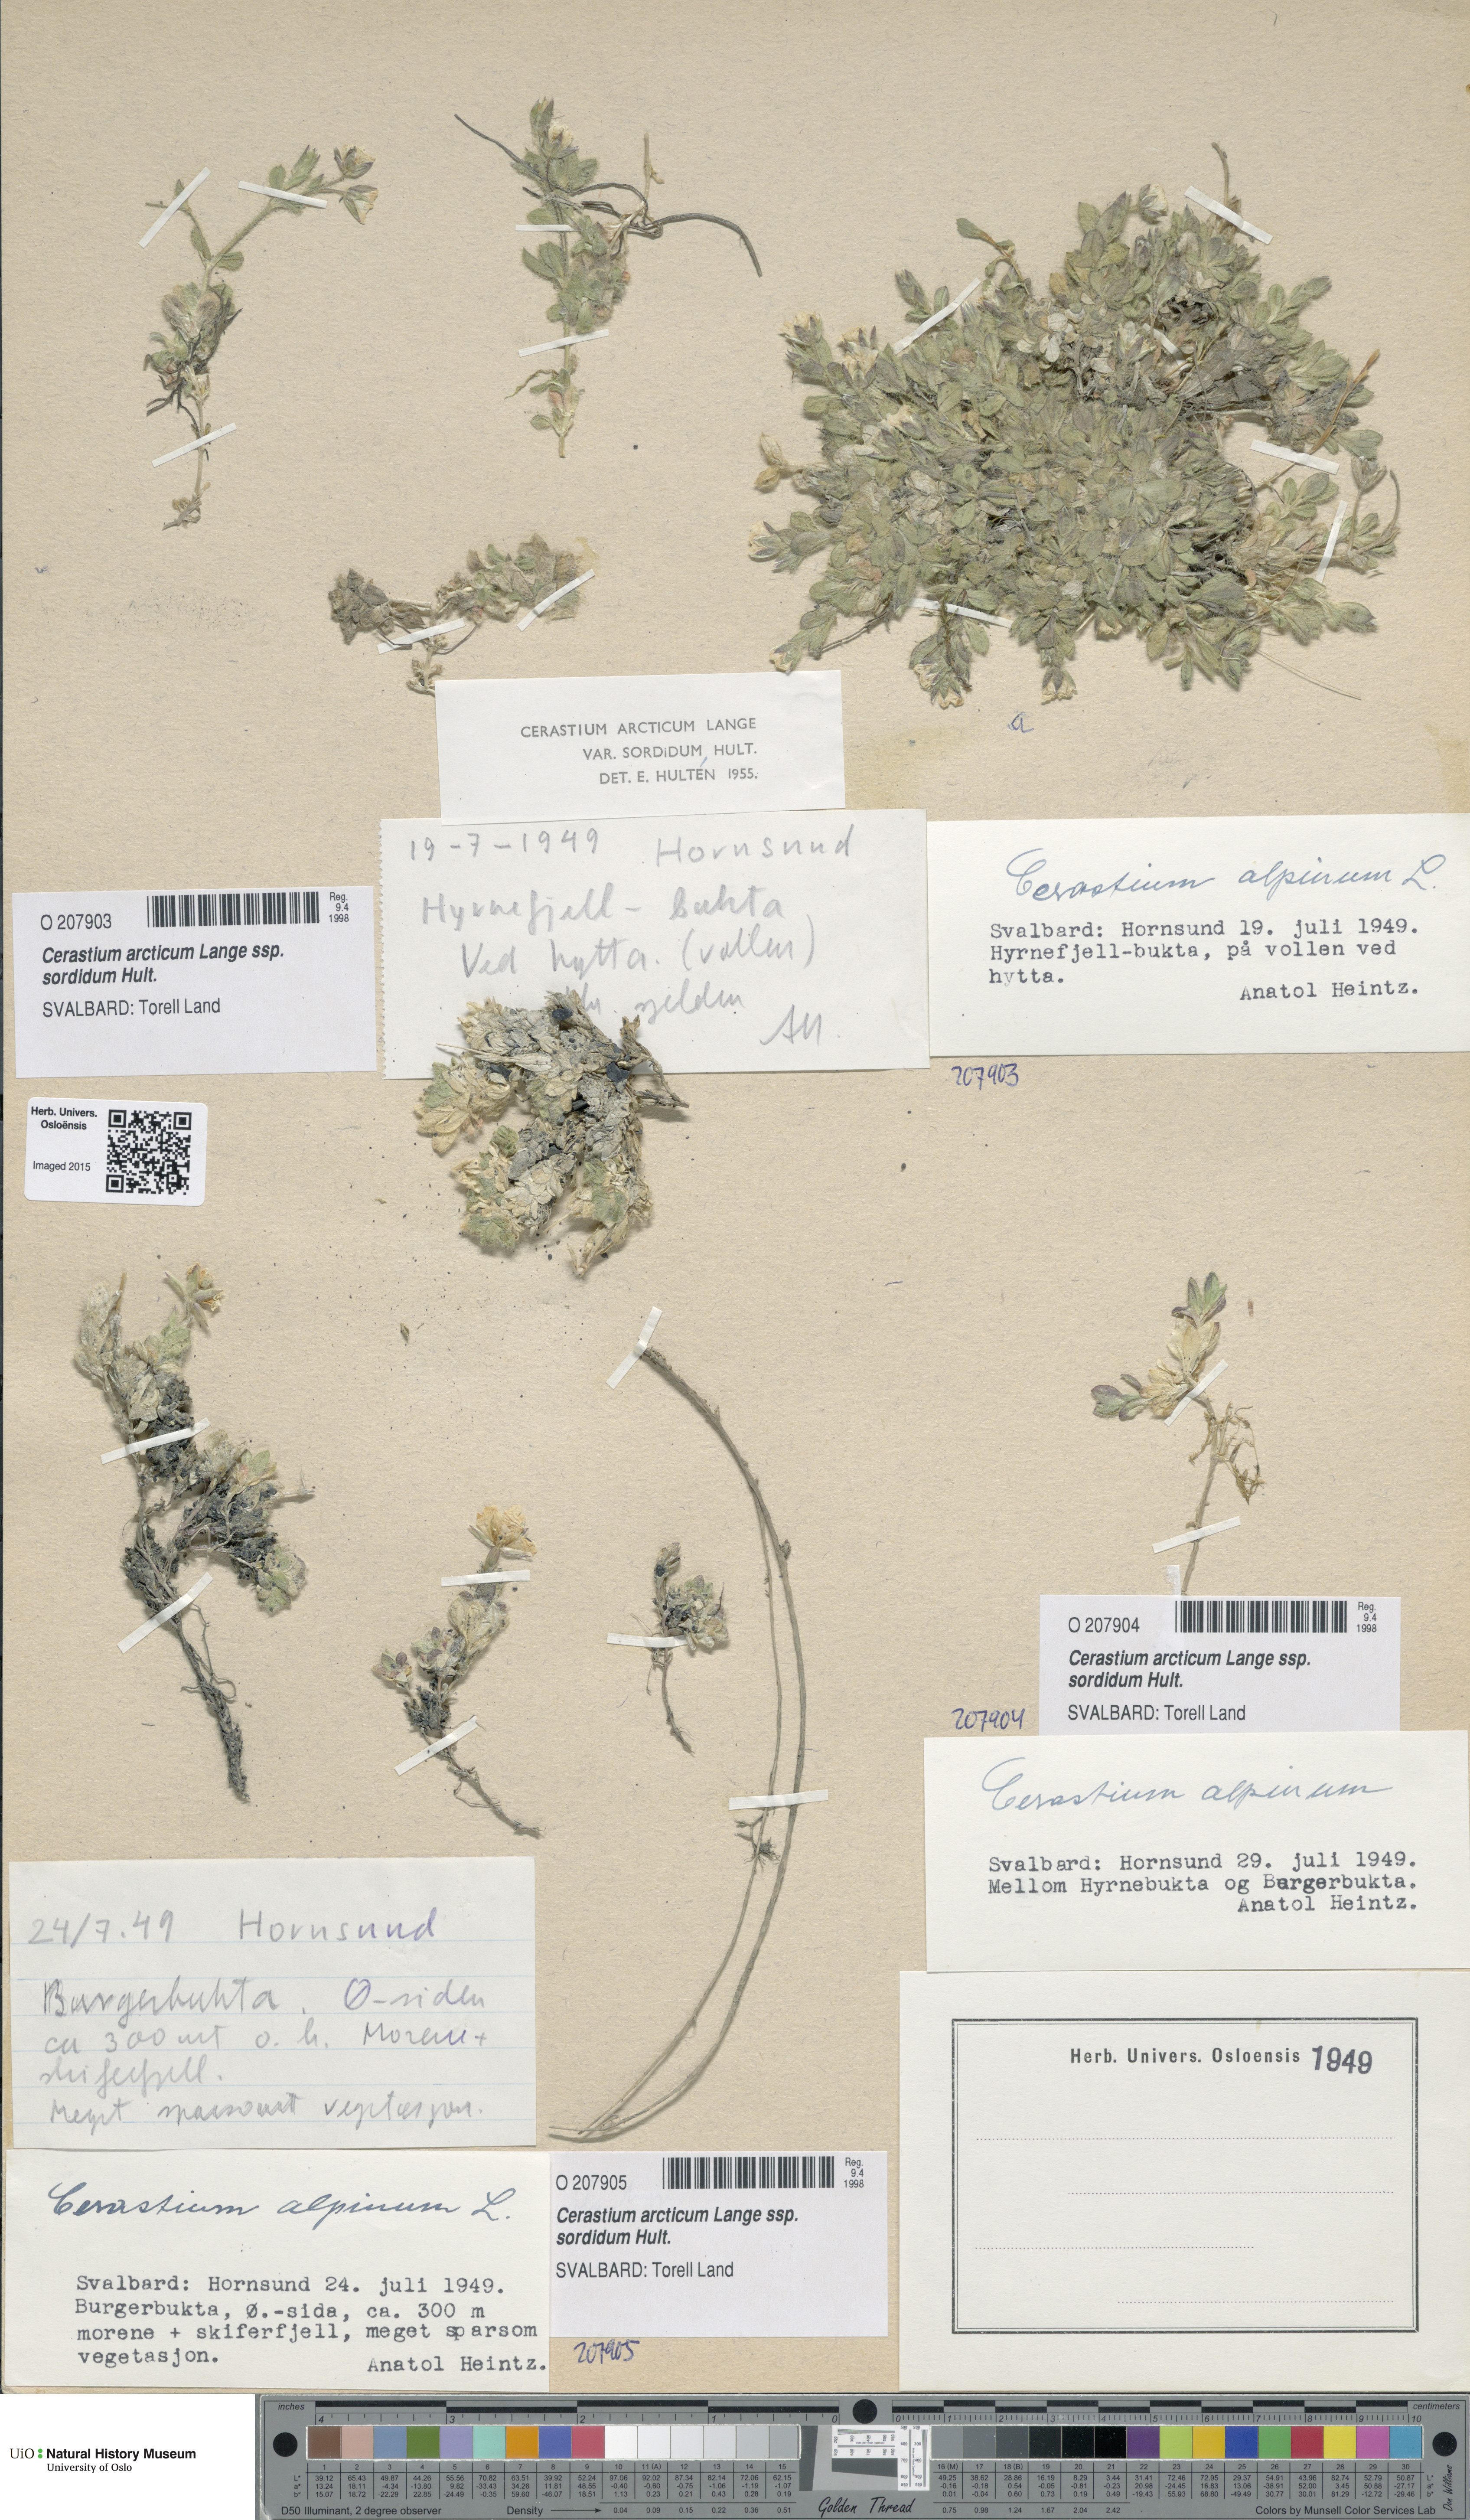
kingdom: Plantae
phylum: Tracheophyta
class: Magnoliopsida
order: Caryophyllales
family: Caryophyllaceae
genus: Cerastium
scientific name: Cerastium sordidum
